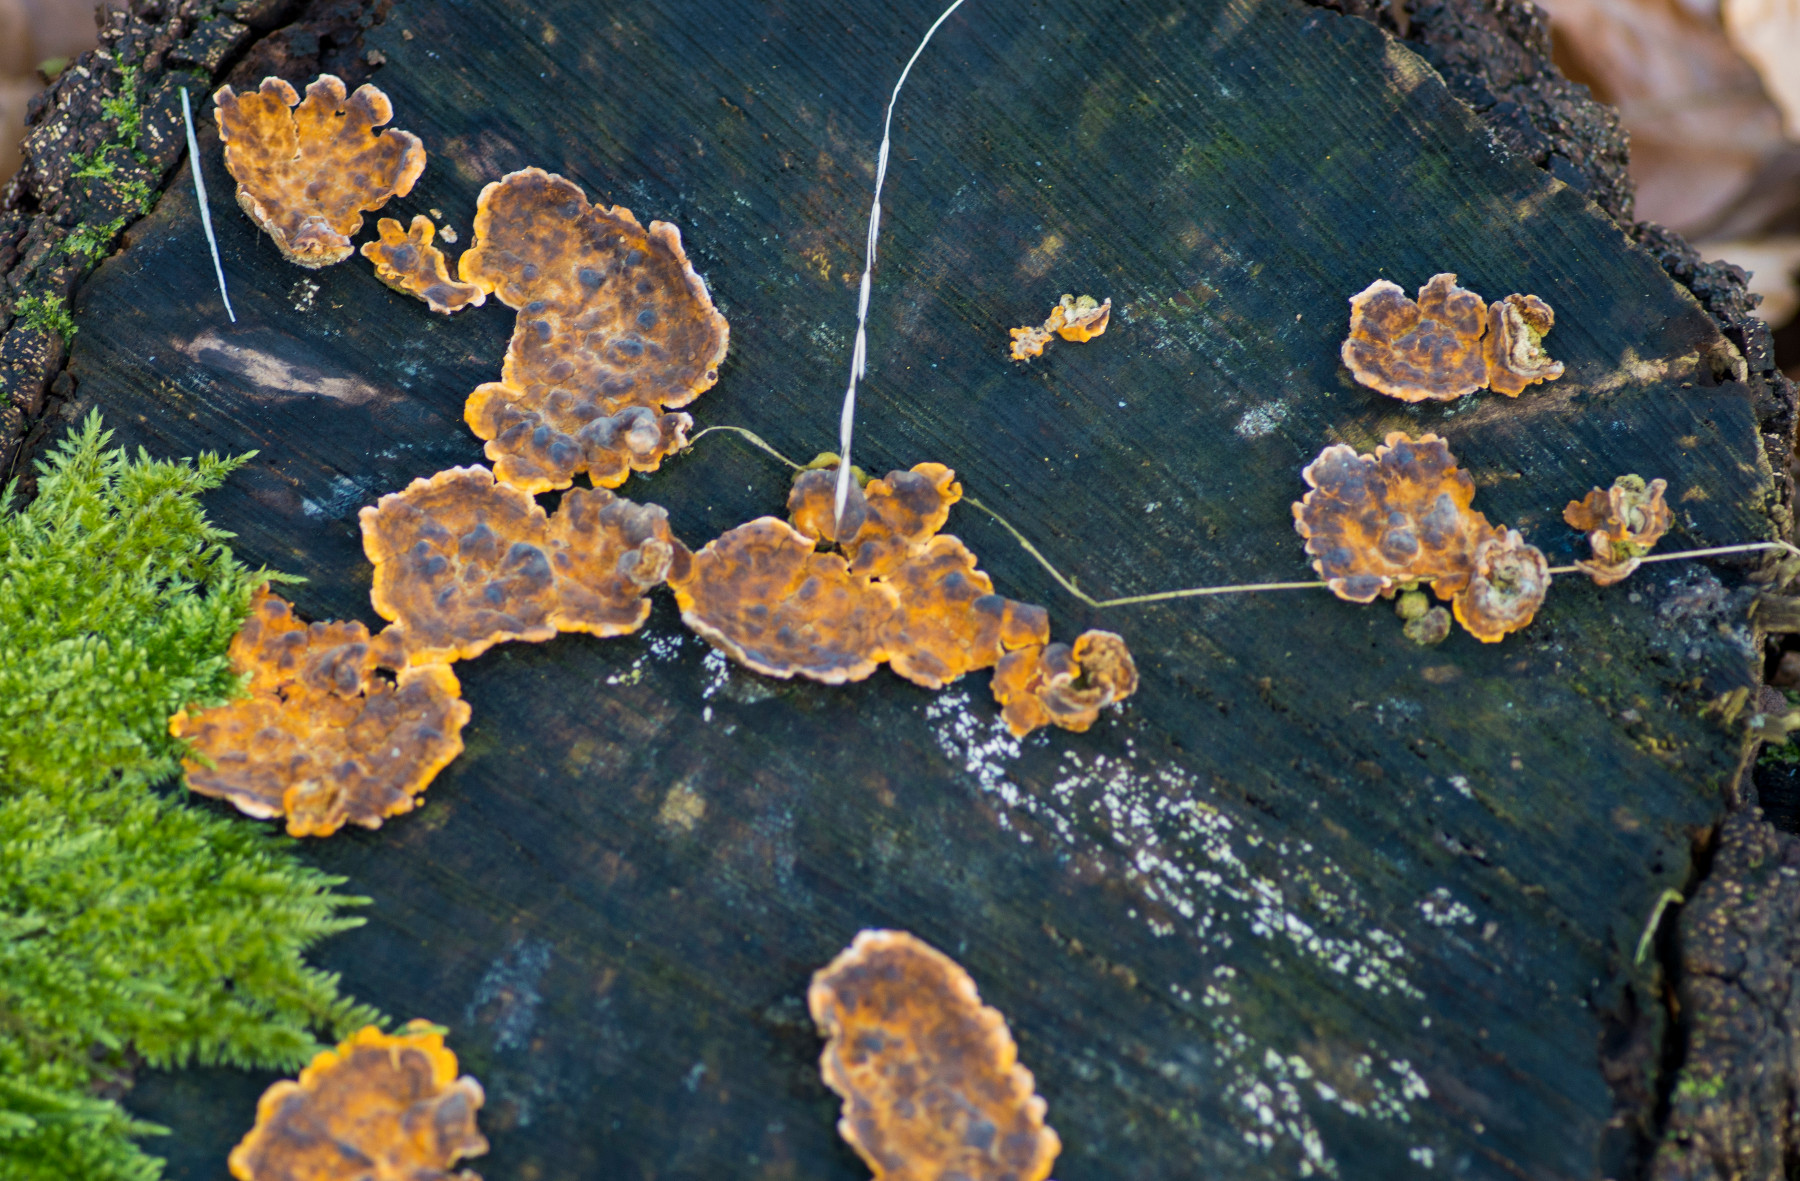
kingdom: Fungi
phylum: Basidiomycota
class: Agaricomycetes
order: Russulales
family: Stereaceae
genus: Stereum
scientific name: Stereum hirsutum
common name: håret lædersvamp
